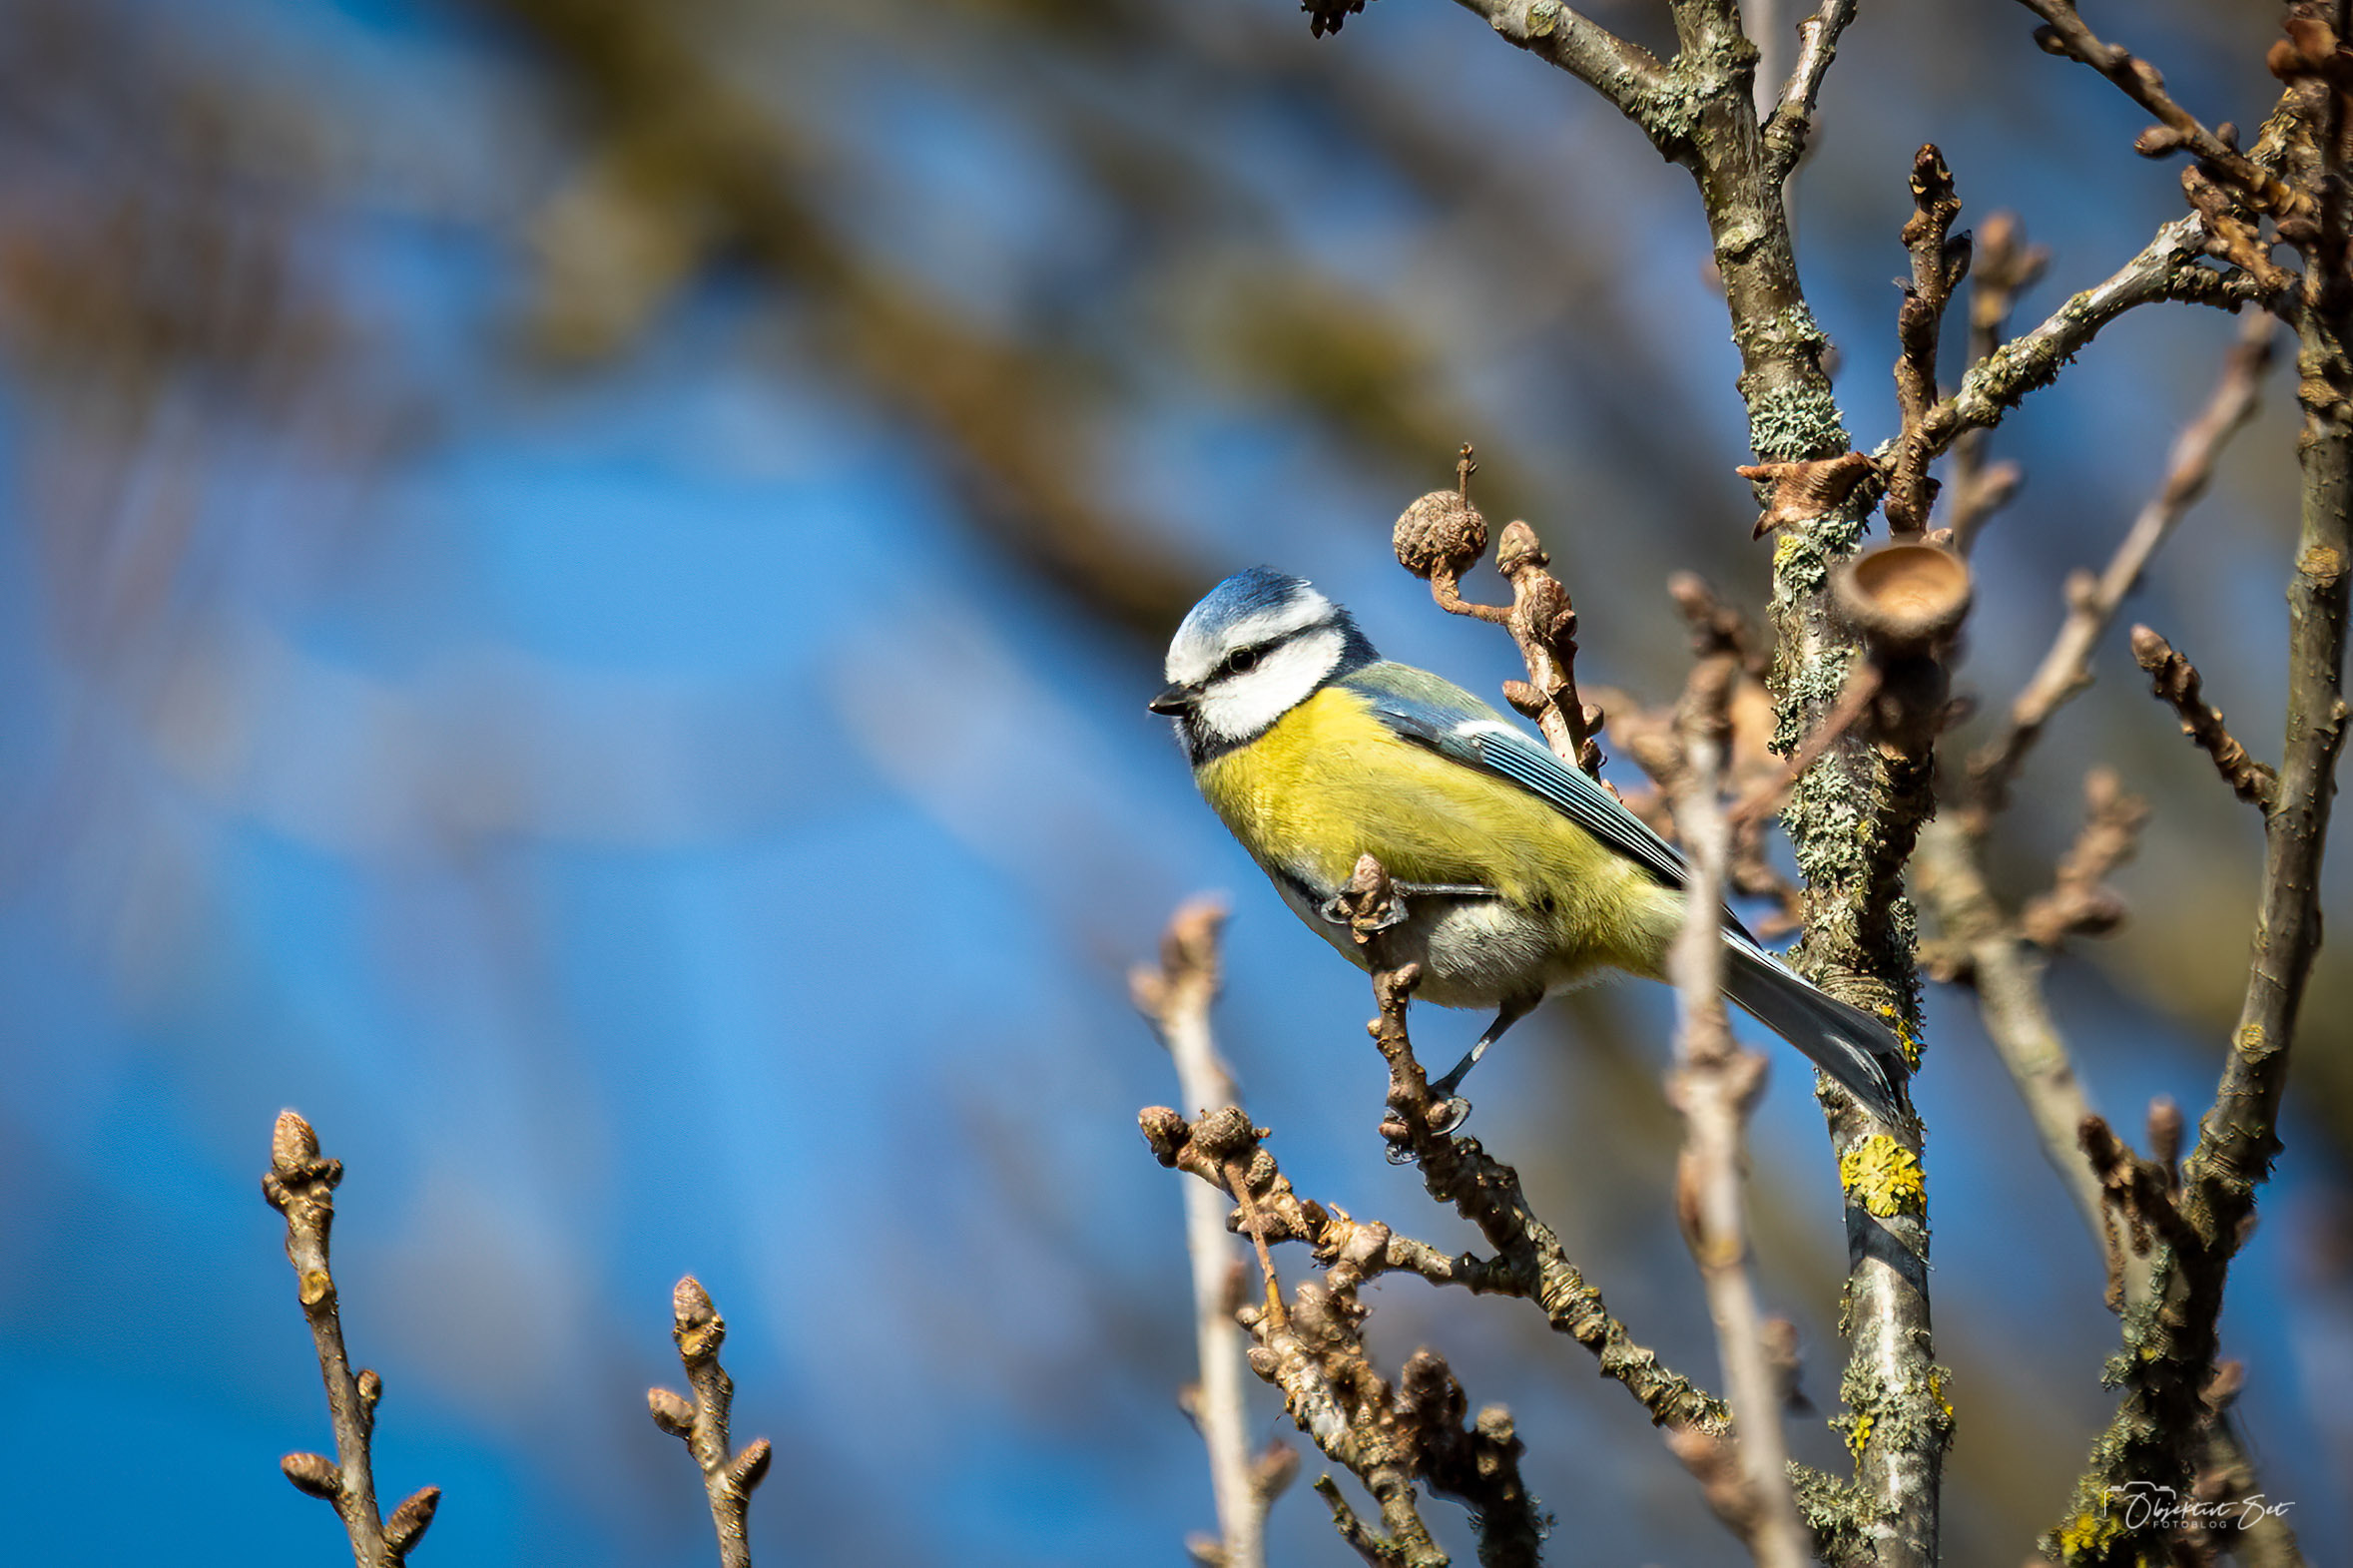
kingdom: Animalia
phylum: Chordata
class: Aves
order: Passeriformes
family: Paridae
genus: Cyanistes
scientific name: Cyanistes caeruleus
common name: Blåmejse
